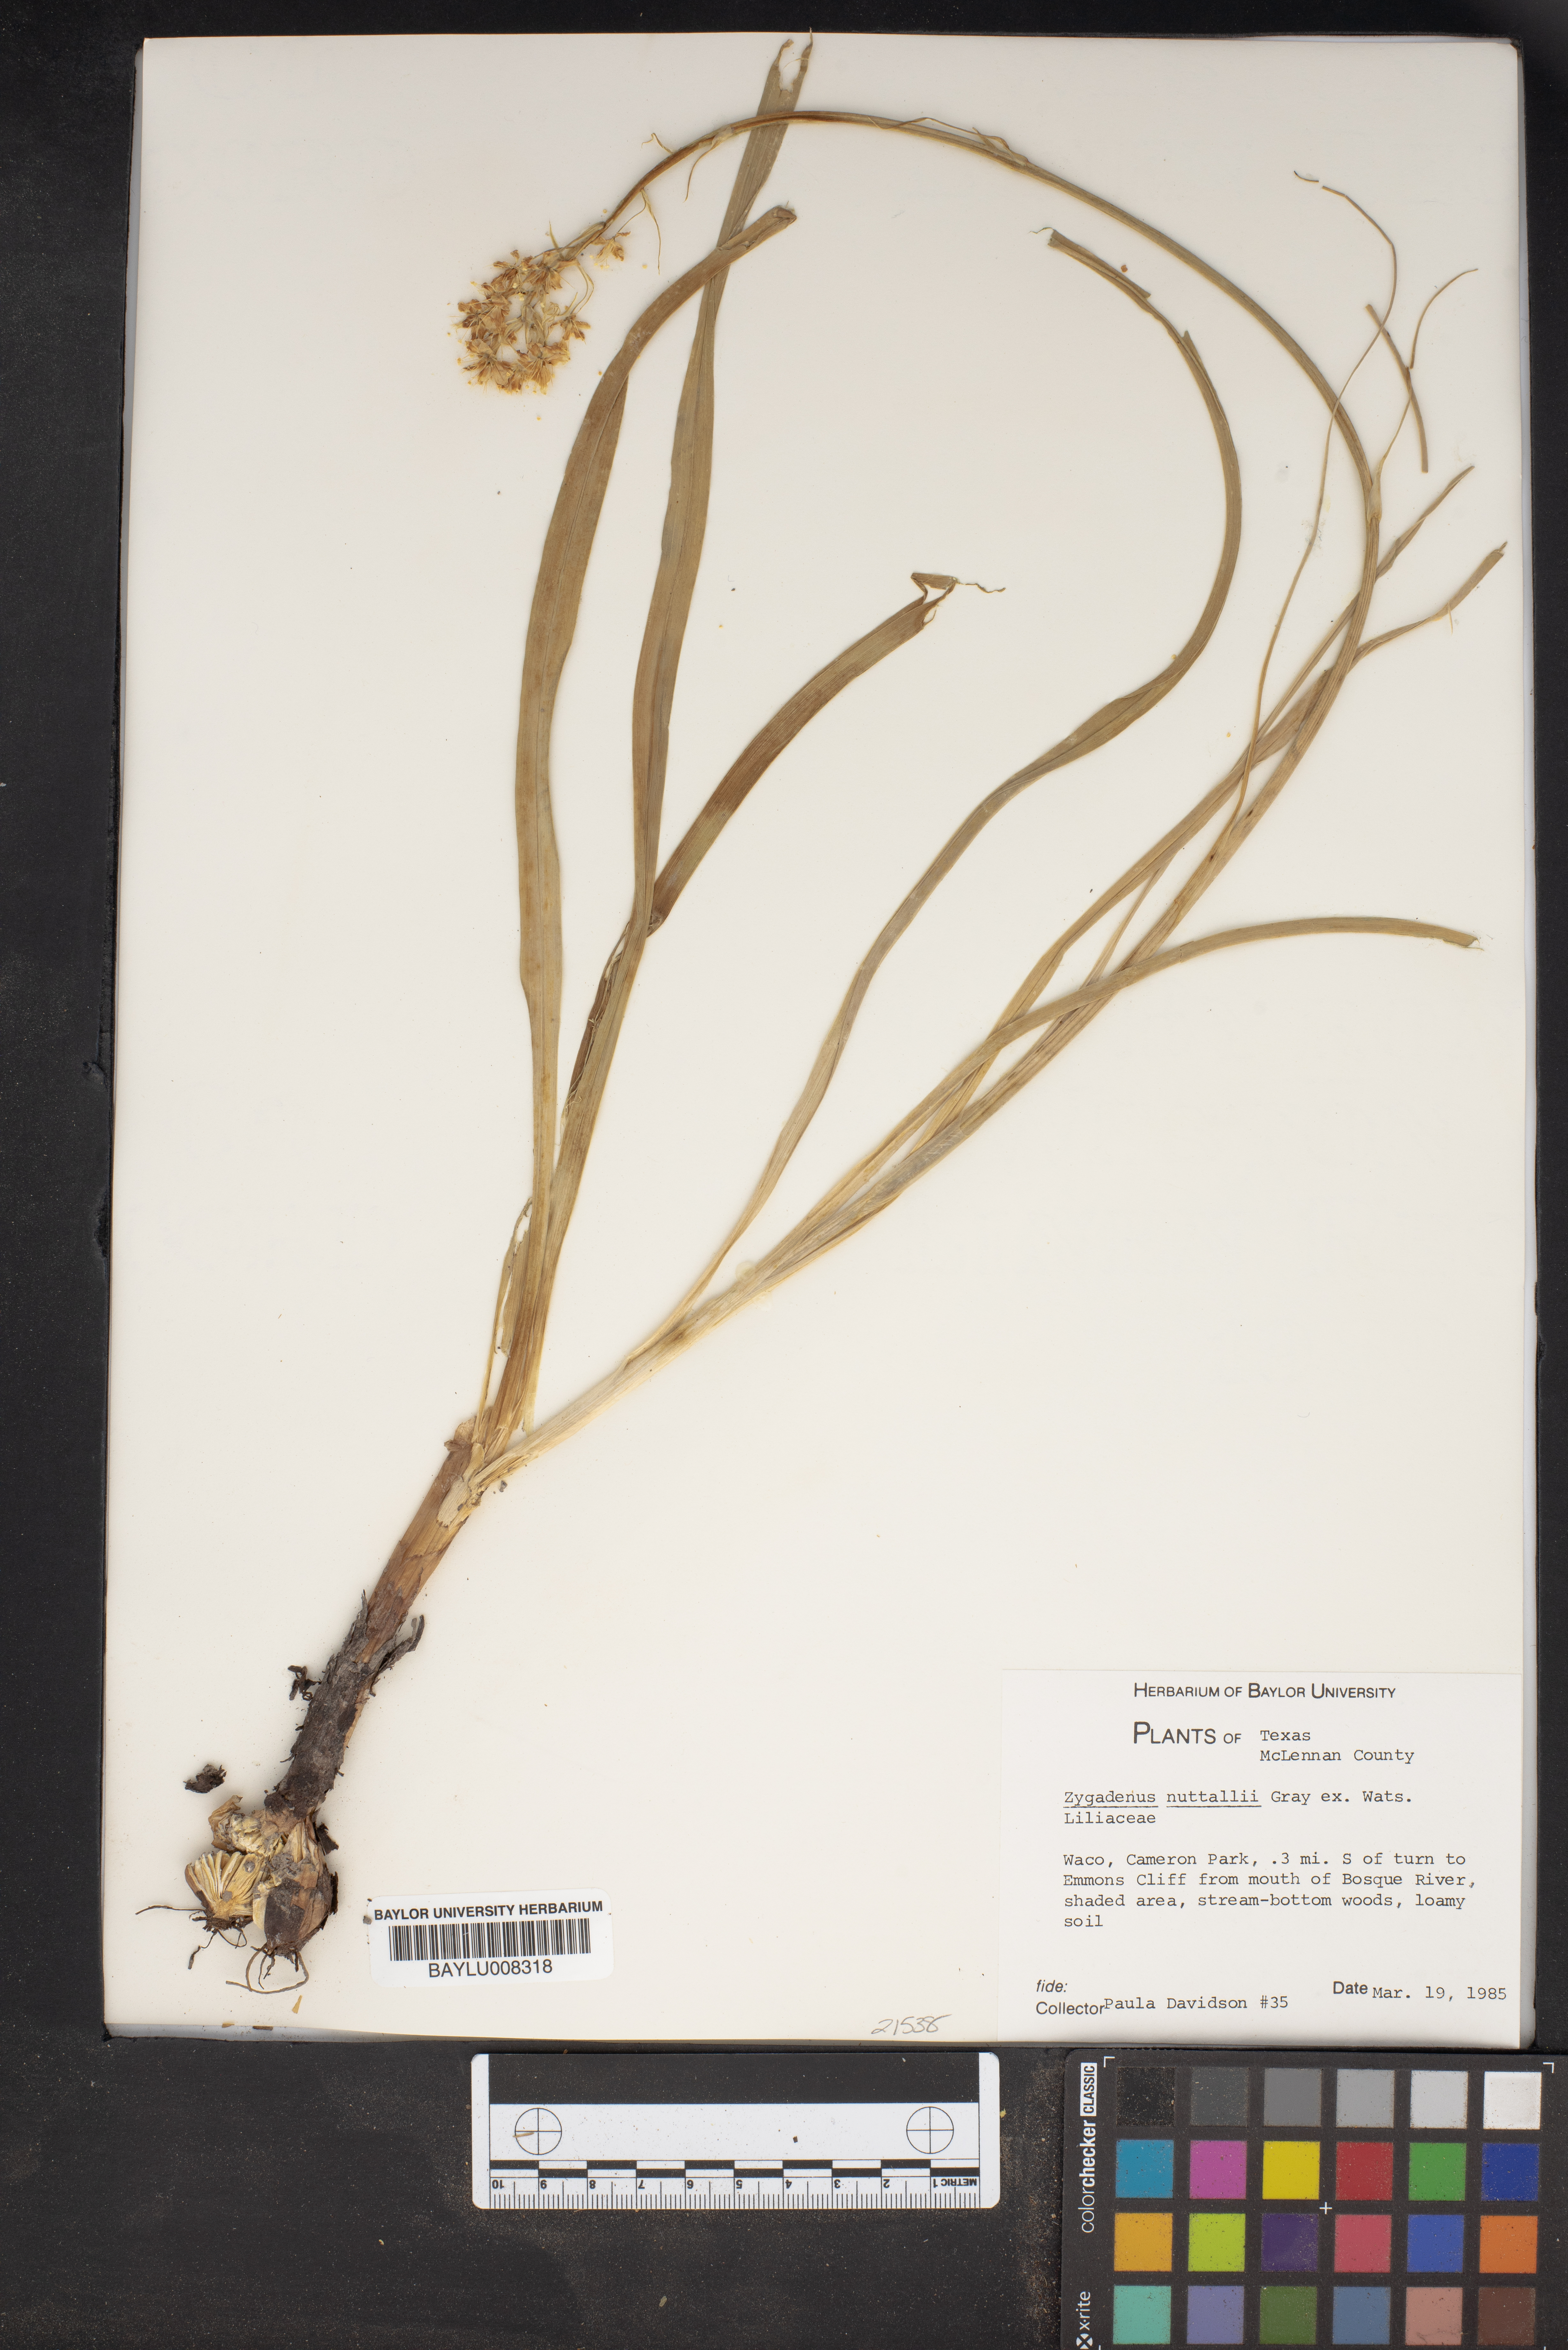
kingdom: Plantae
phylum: Tracheophyta
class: Liliopsida
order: Liliales
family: Melanthiaceae
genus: Toxicoscordion
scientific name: Toxicoscordion nuttallii
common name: Poison sego
